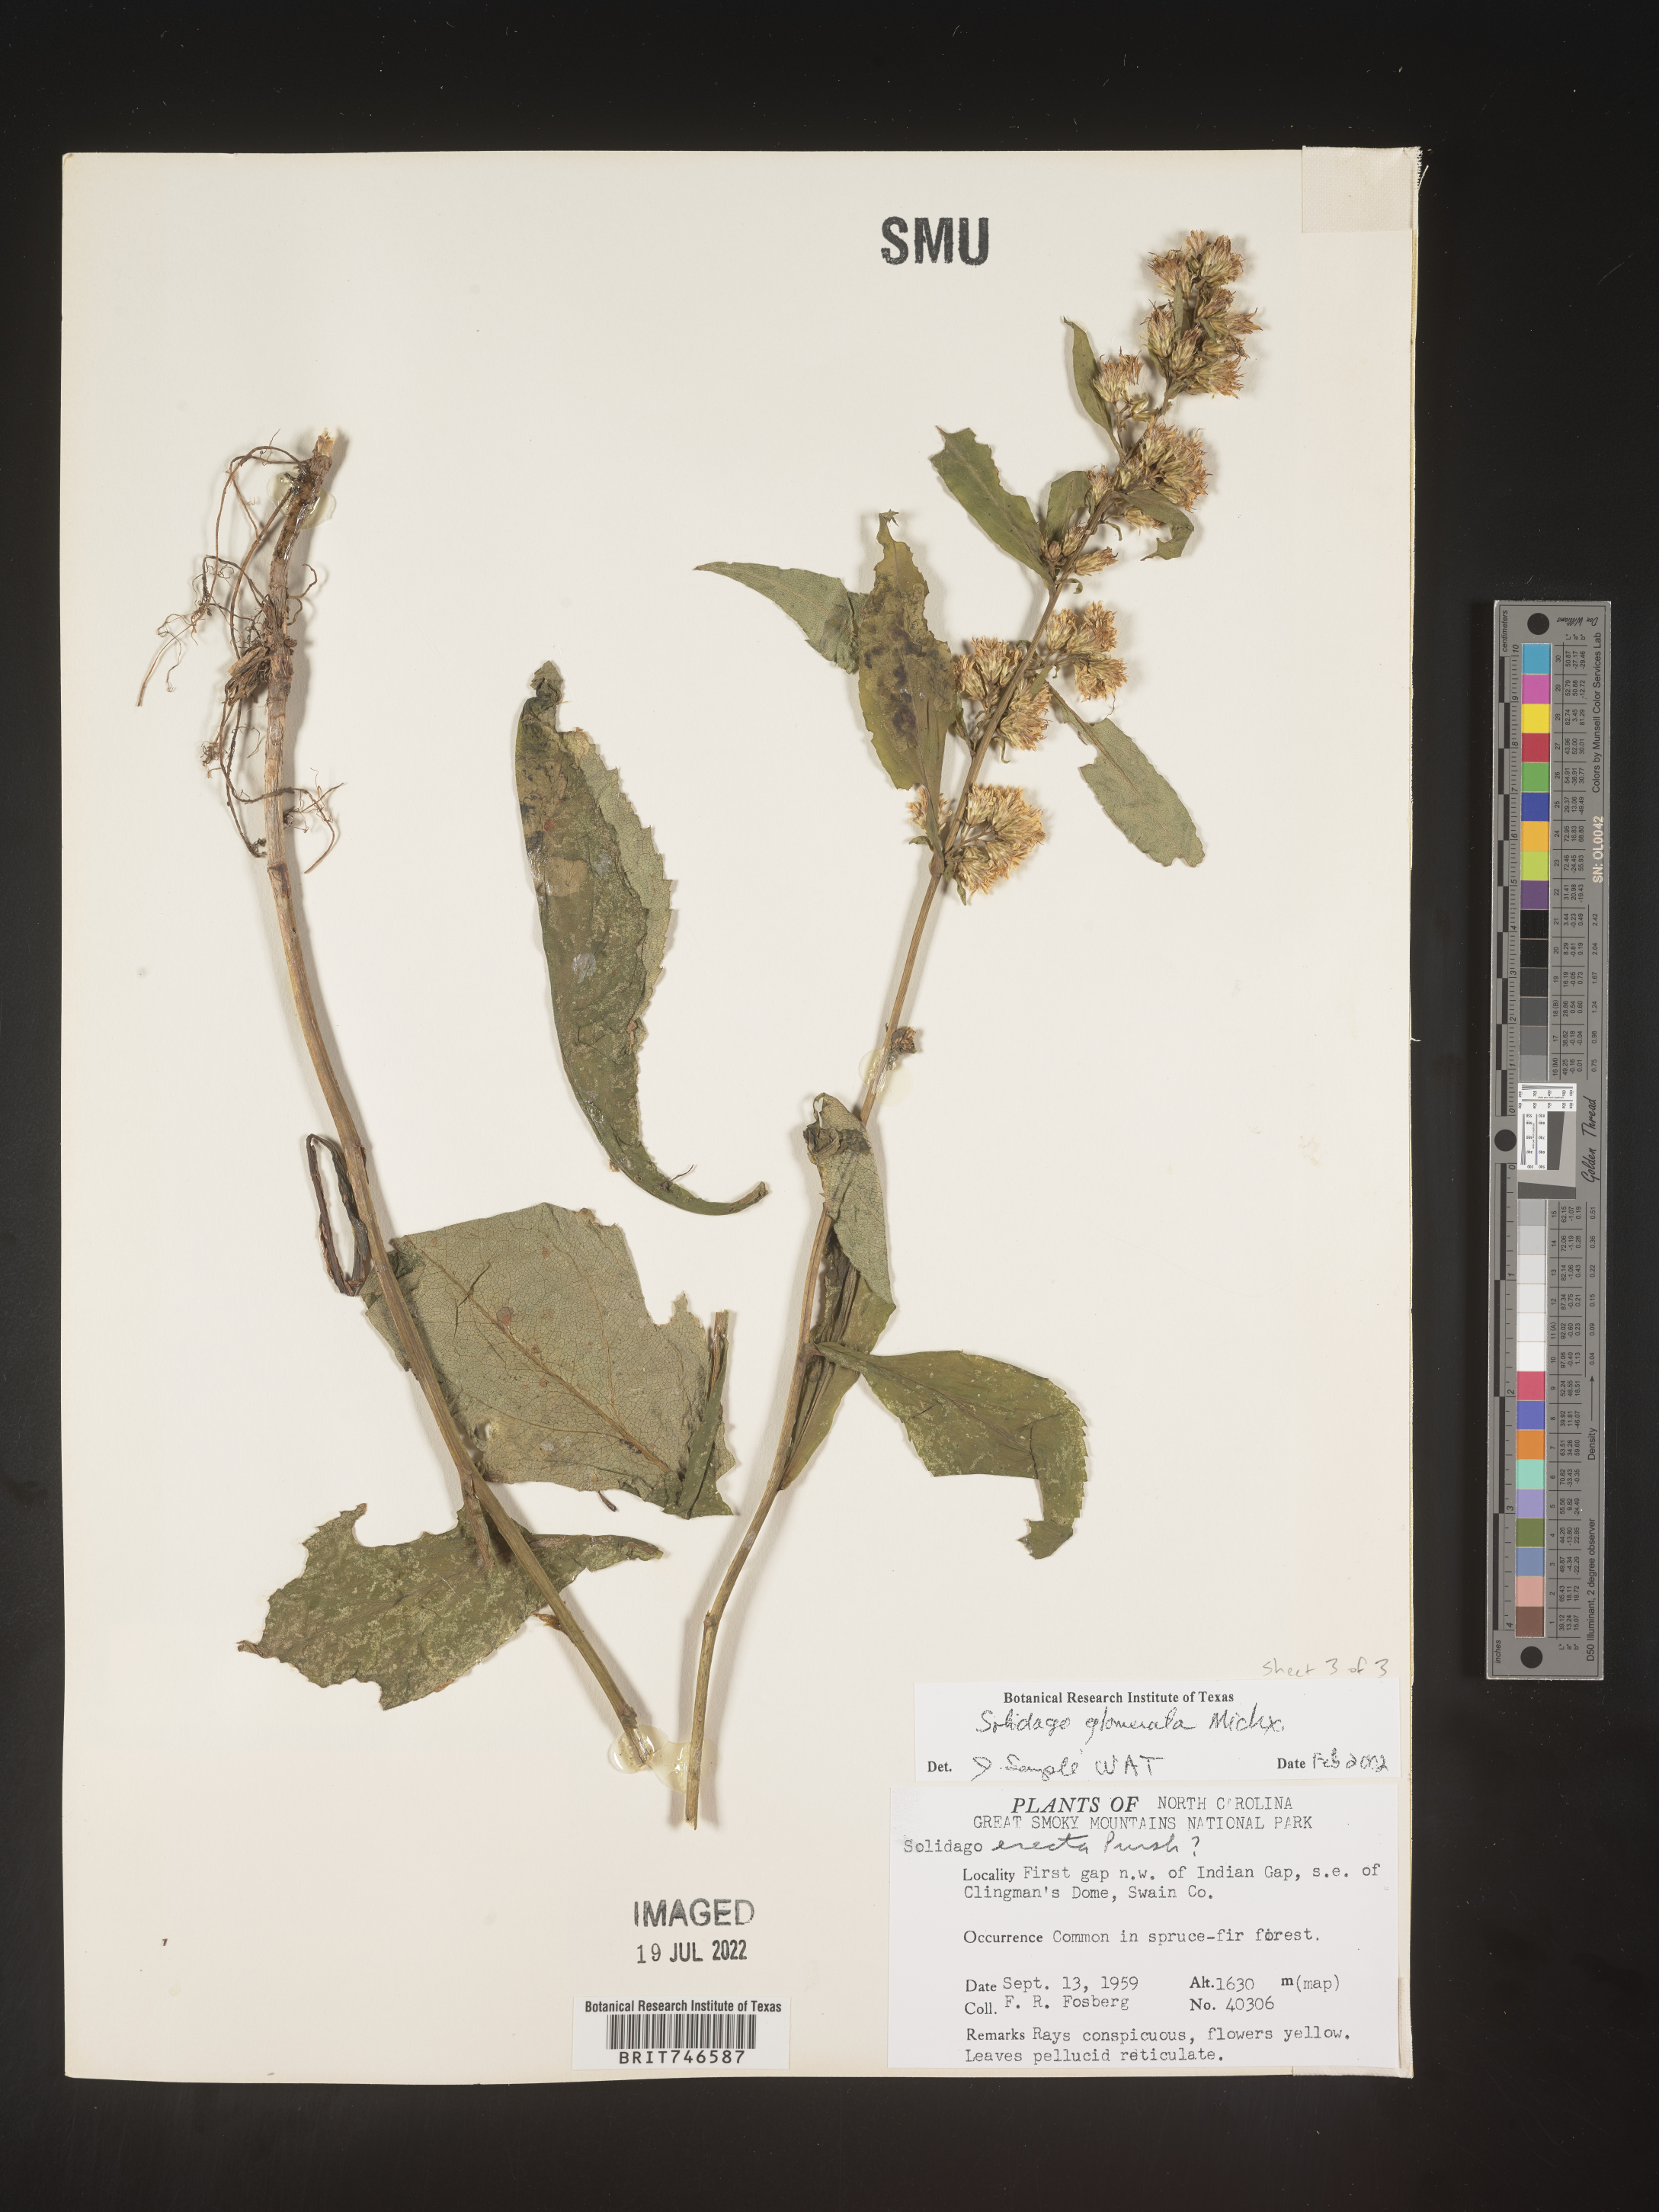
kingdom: Plantae
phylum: Tracheophyta
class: Magnoliopsida
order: Asterales
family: Asteraceae
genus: Solidago
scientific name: Solidago glomerata
